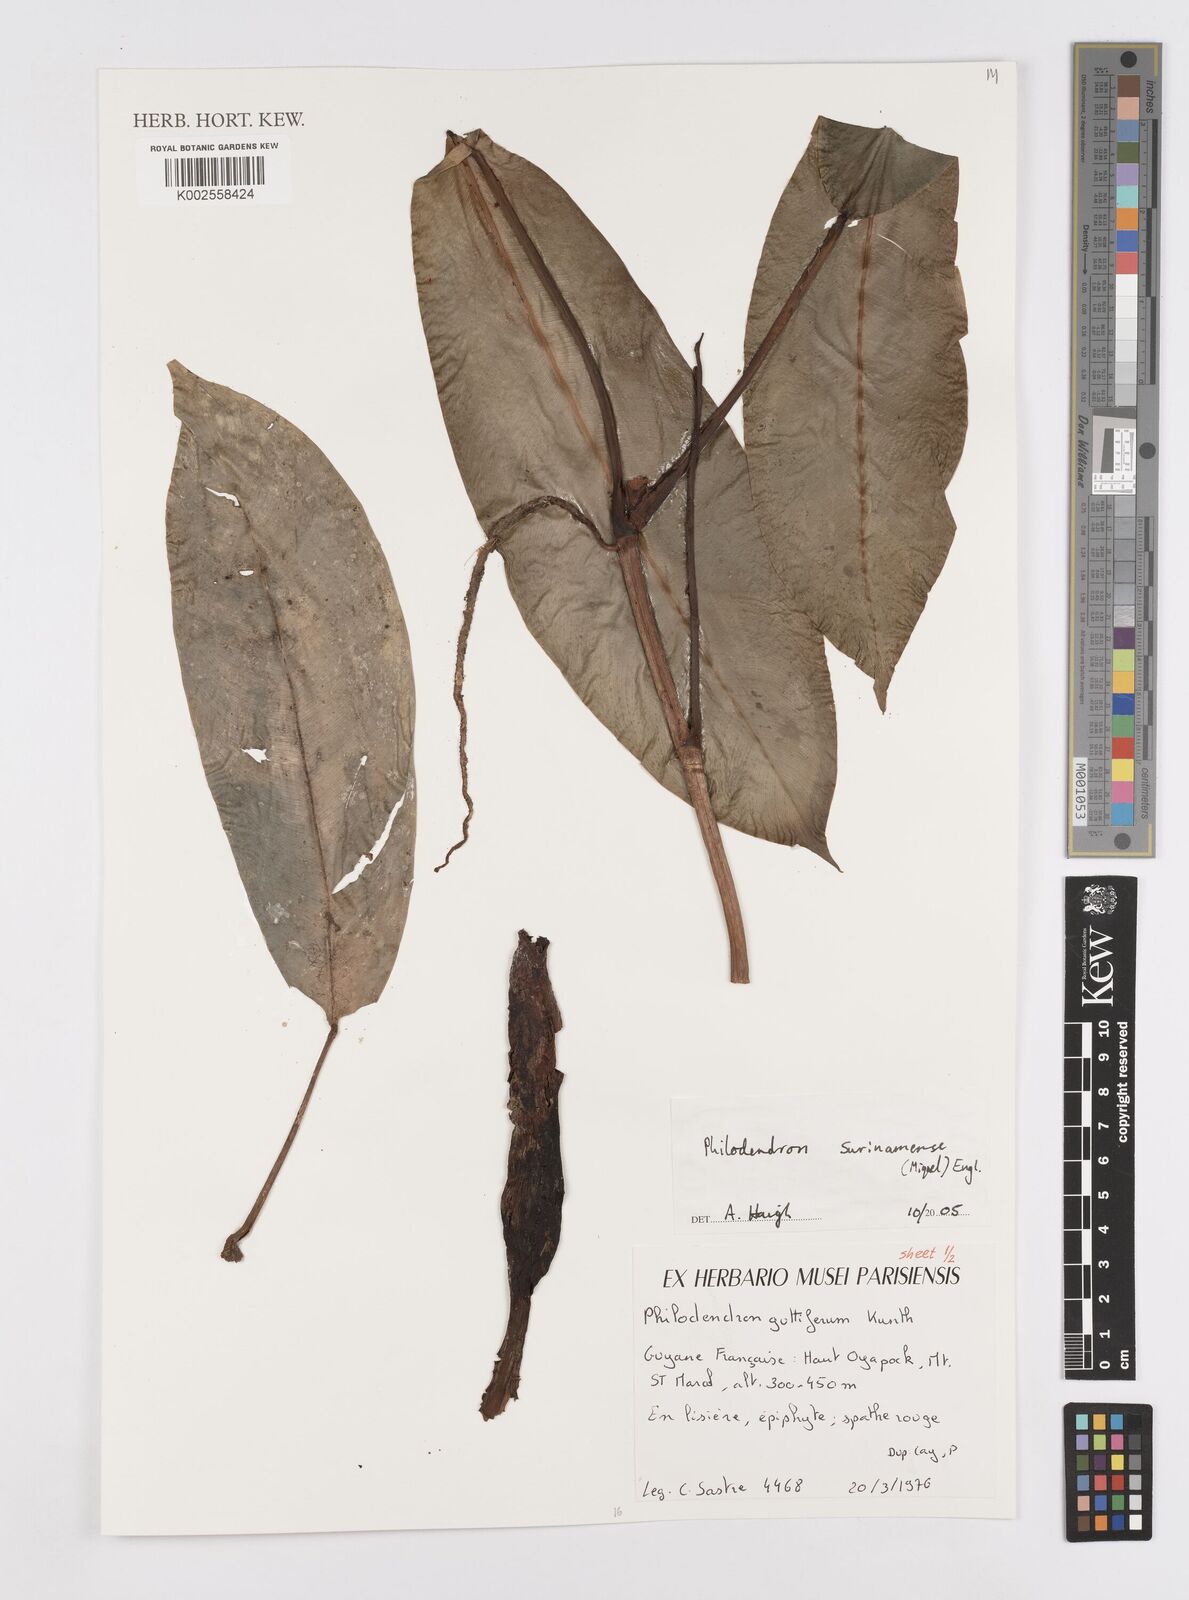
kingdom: Plantae
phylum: Tracheophyta
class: Liliopsida
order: Alismatales
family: Araceae
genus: Philodendron
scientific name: Philodendron surinamense
